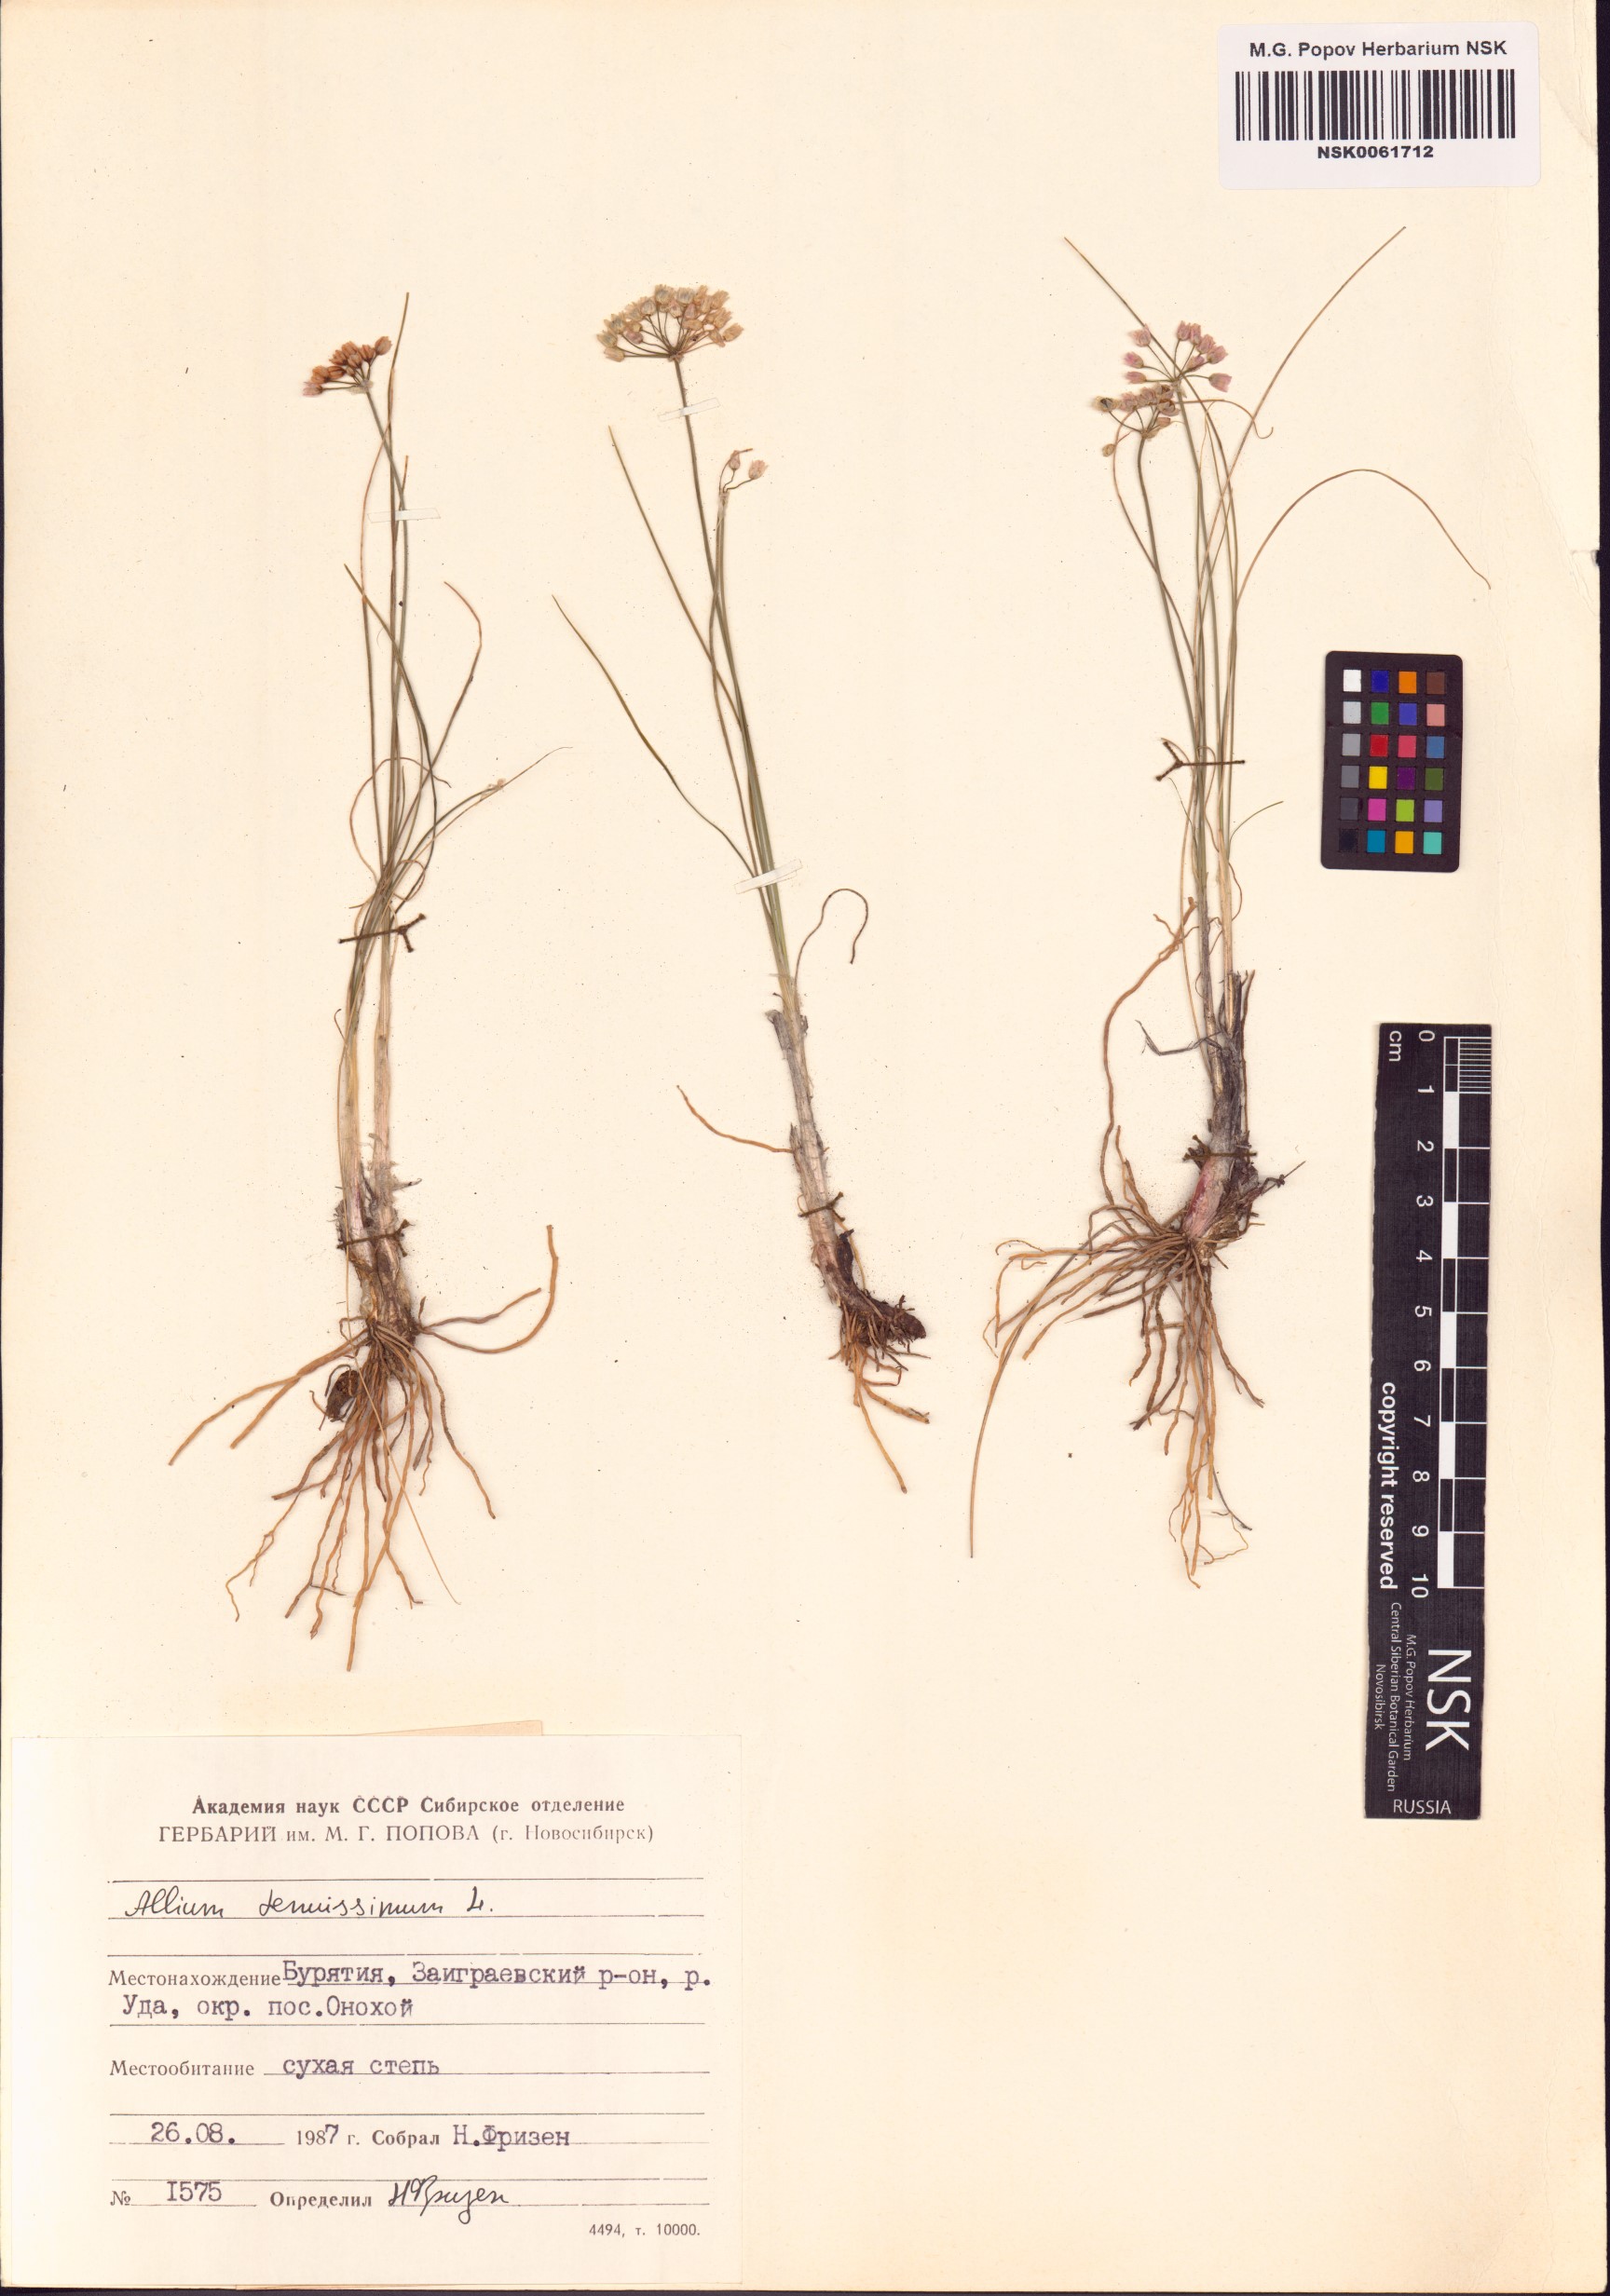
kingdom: Plantae
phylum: Tracheophyta
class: Liliopsida
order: Asparagales
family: Amaryllidaceae
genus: Allium
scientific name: Allium tenuissimum
